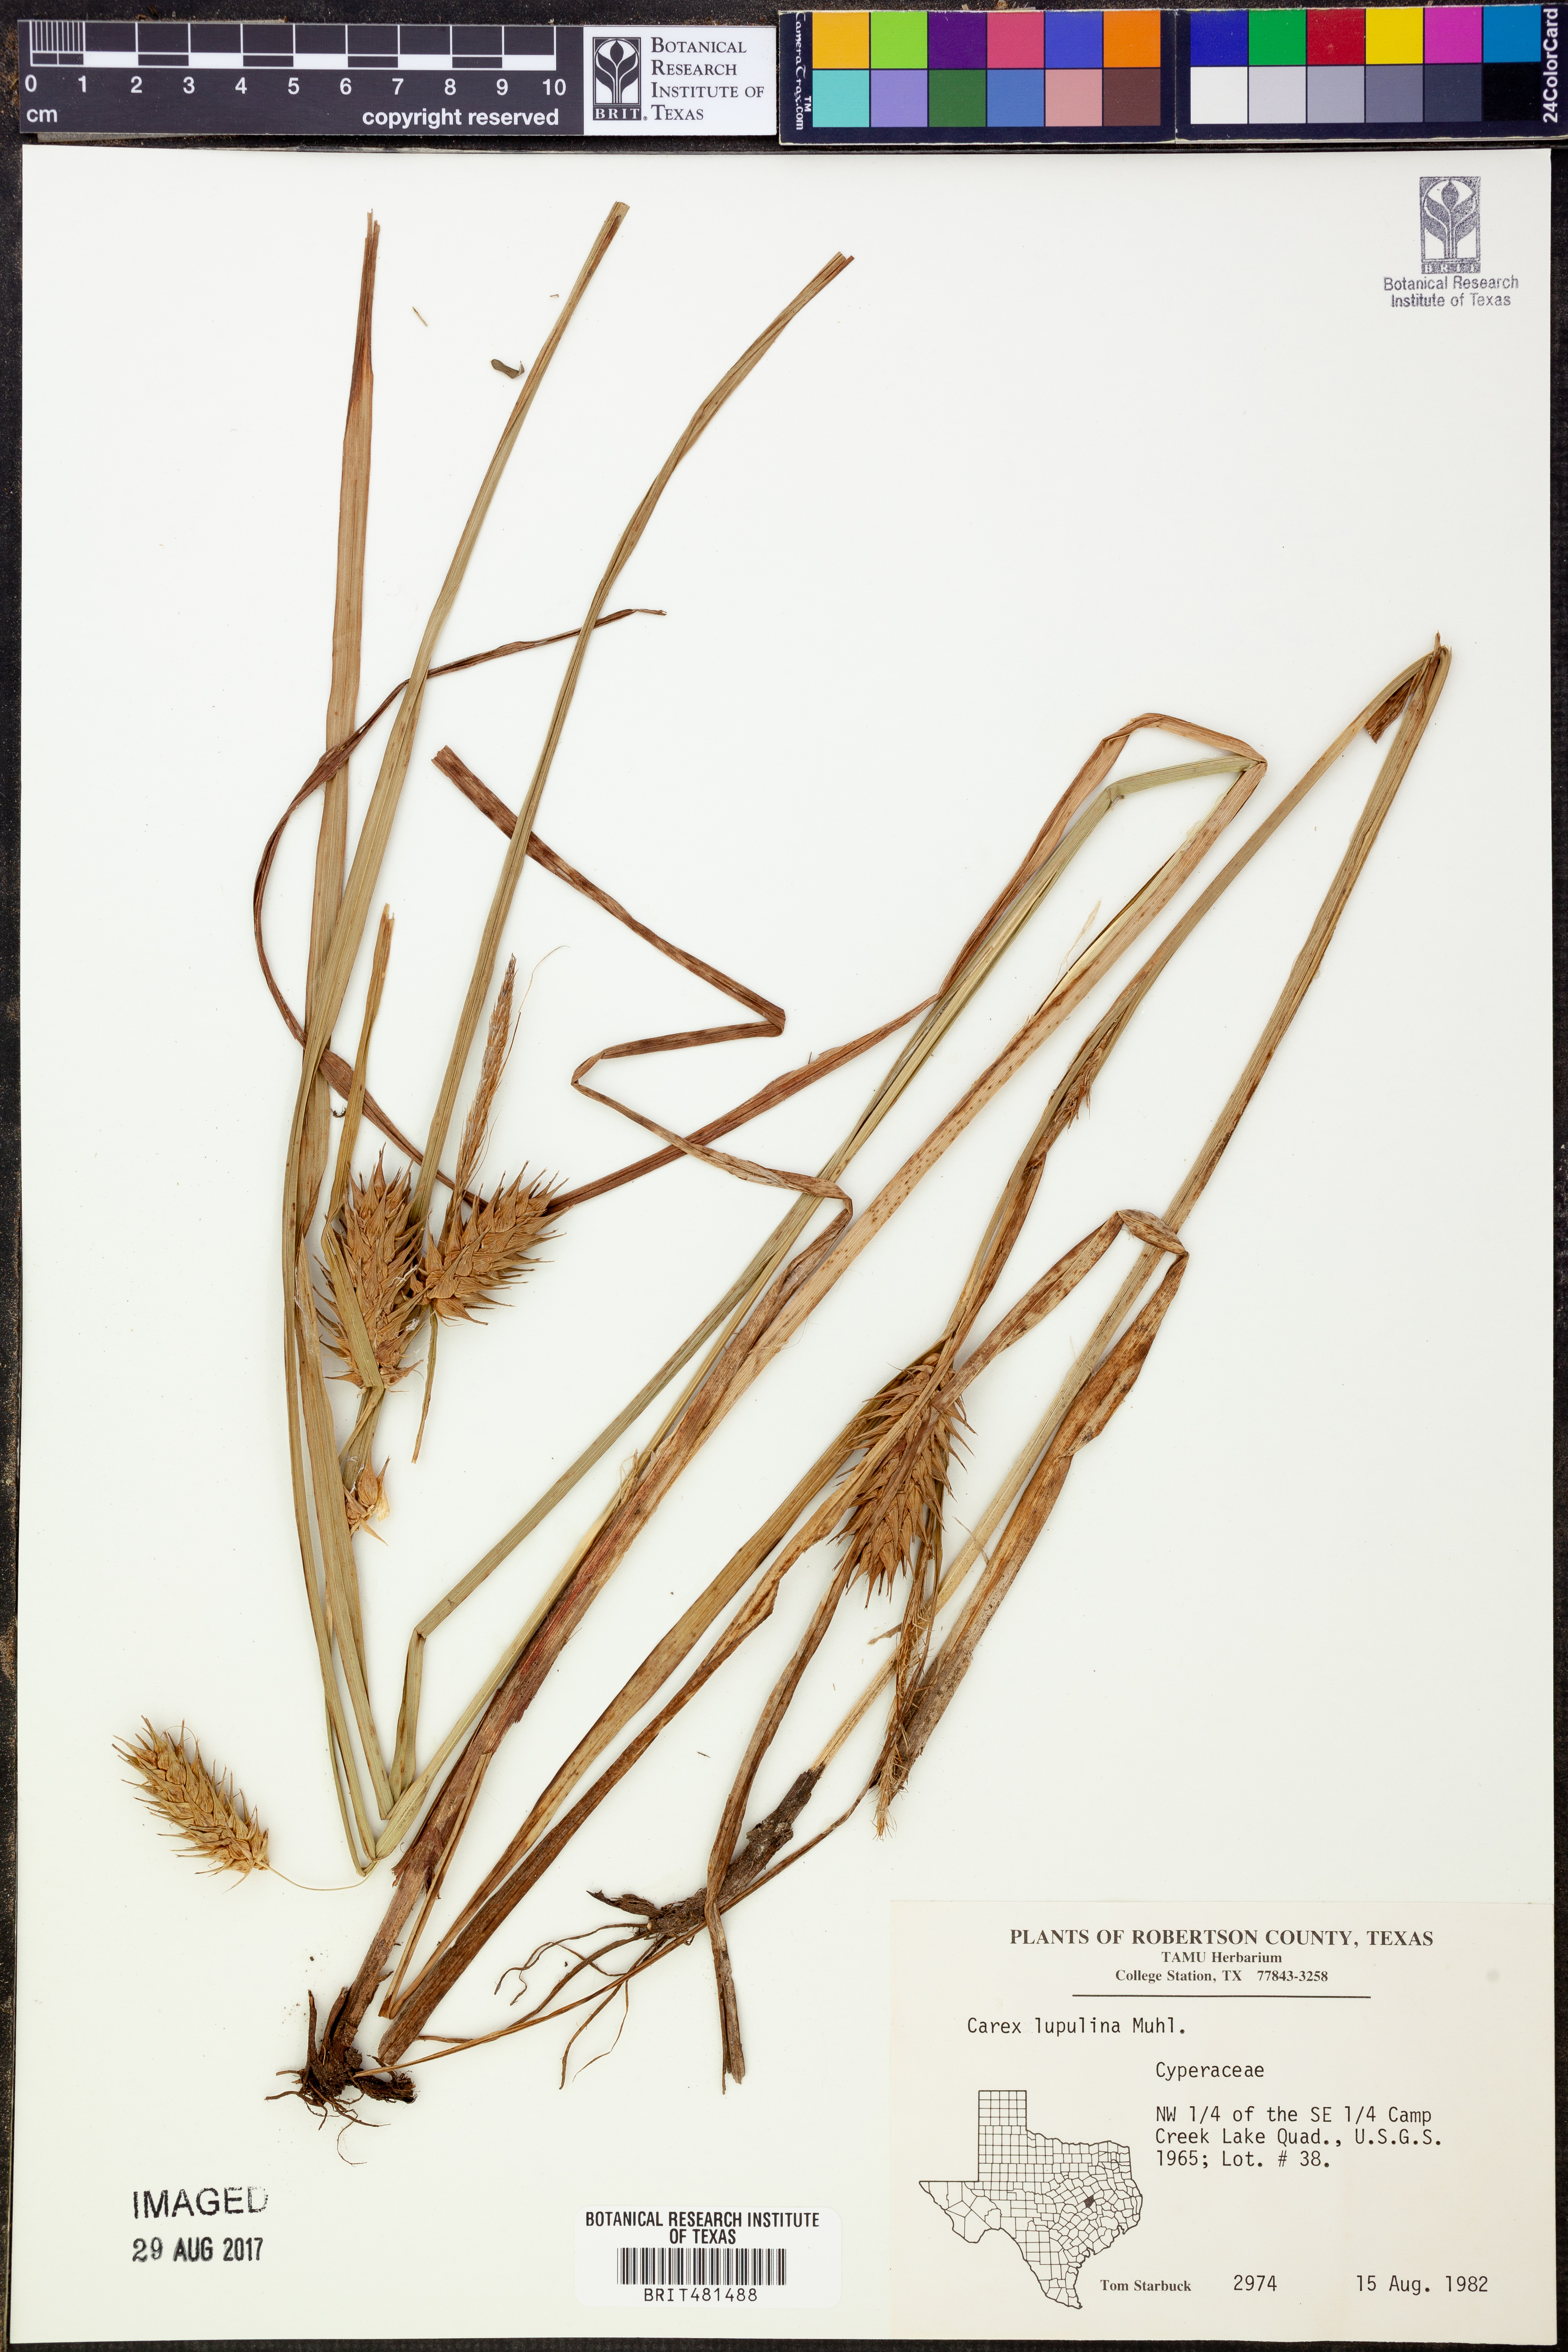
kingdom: Plantae
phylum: Tracheophyta
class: Liliopsida
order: Poales
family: Cyperaceae
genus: Carex
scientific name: Carex lupulina
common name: Hop sedge
